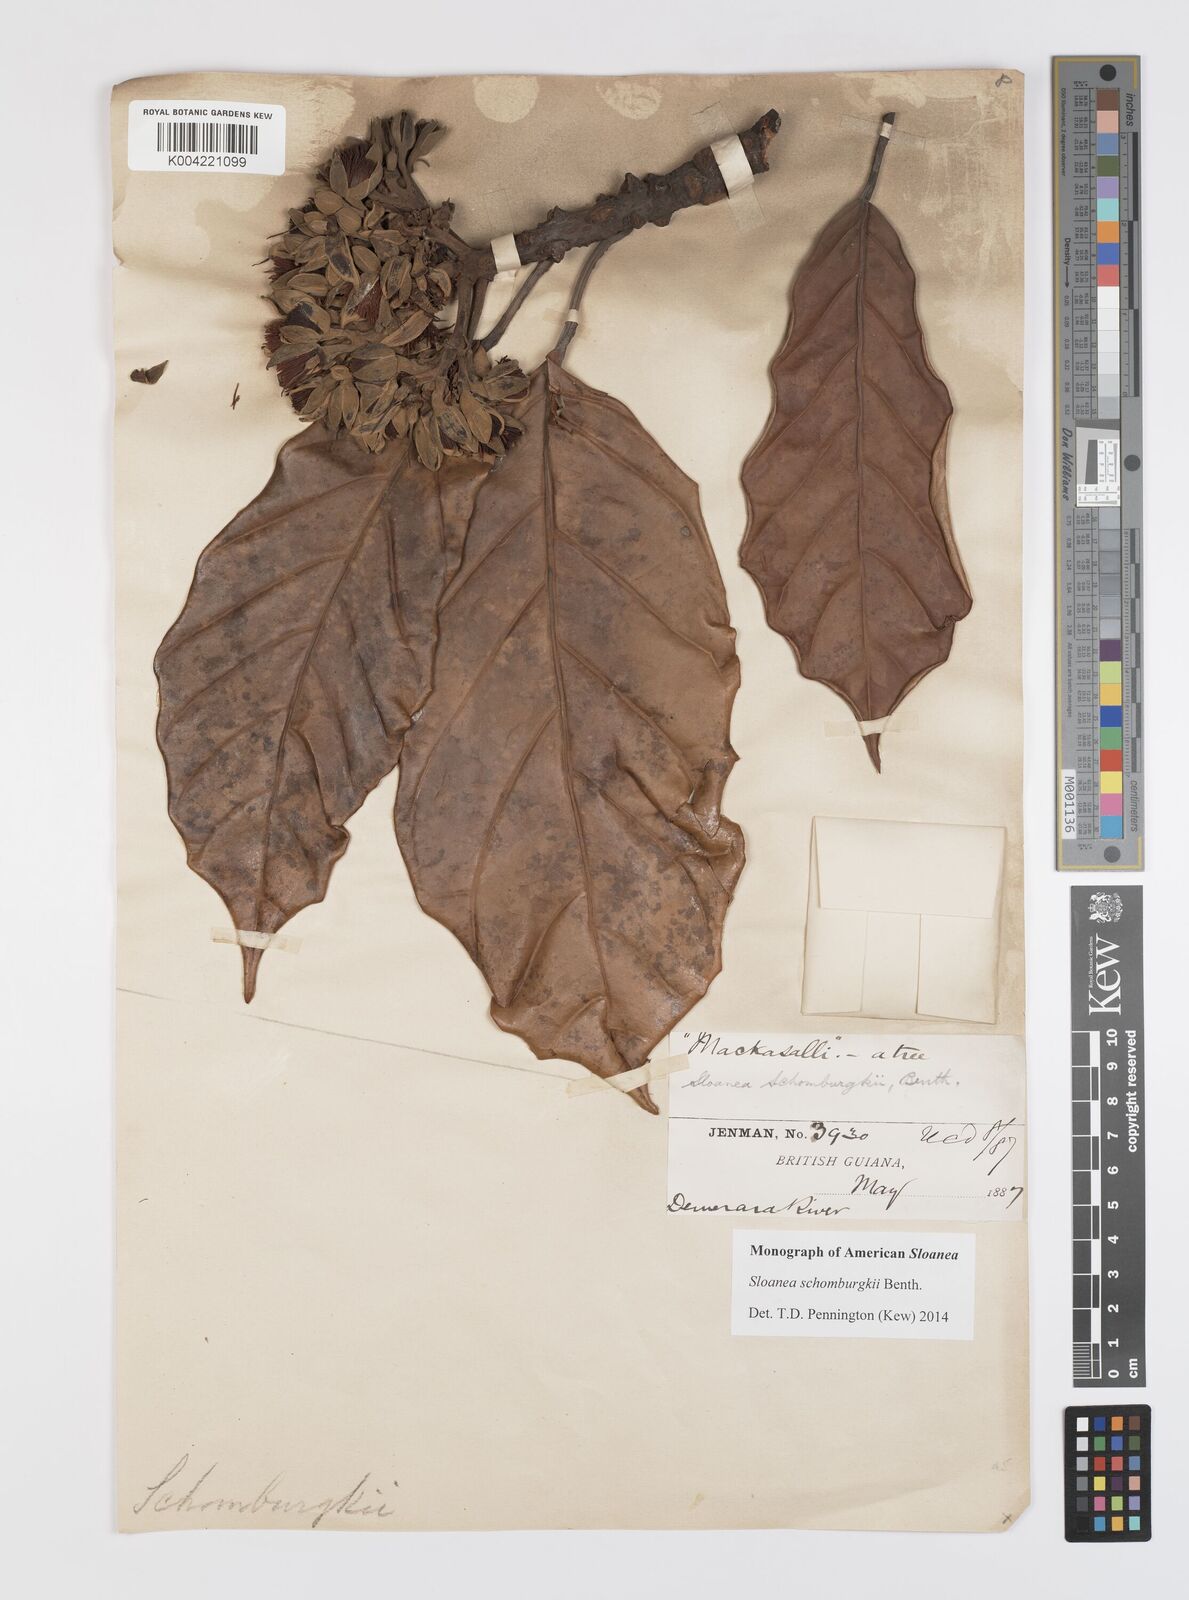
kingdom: Plantae
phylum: Tracheophyta
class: Magnoliopsida
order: Oxalidales
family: Elaeocarpaceae
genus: Sloanea
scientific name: Sloanea schomburgkii
